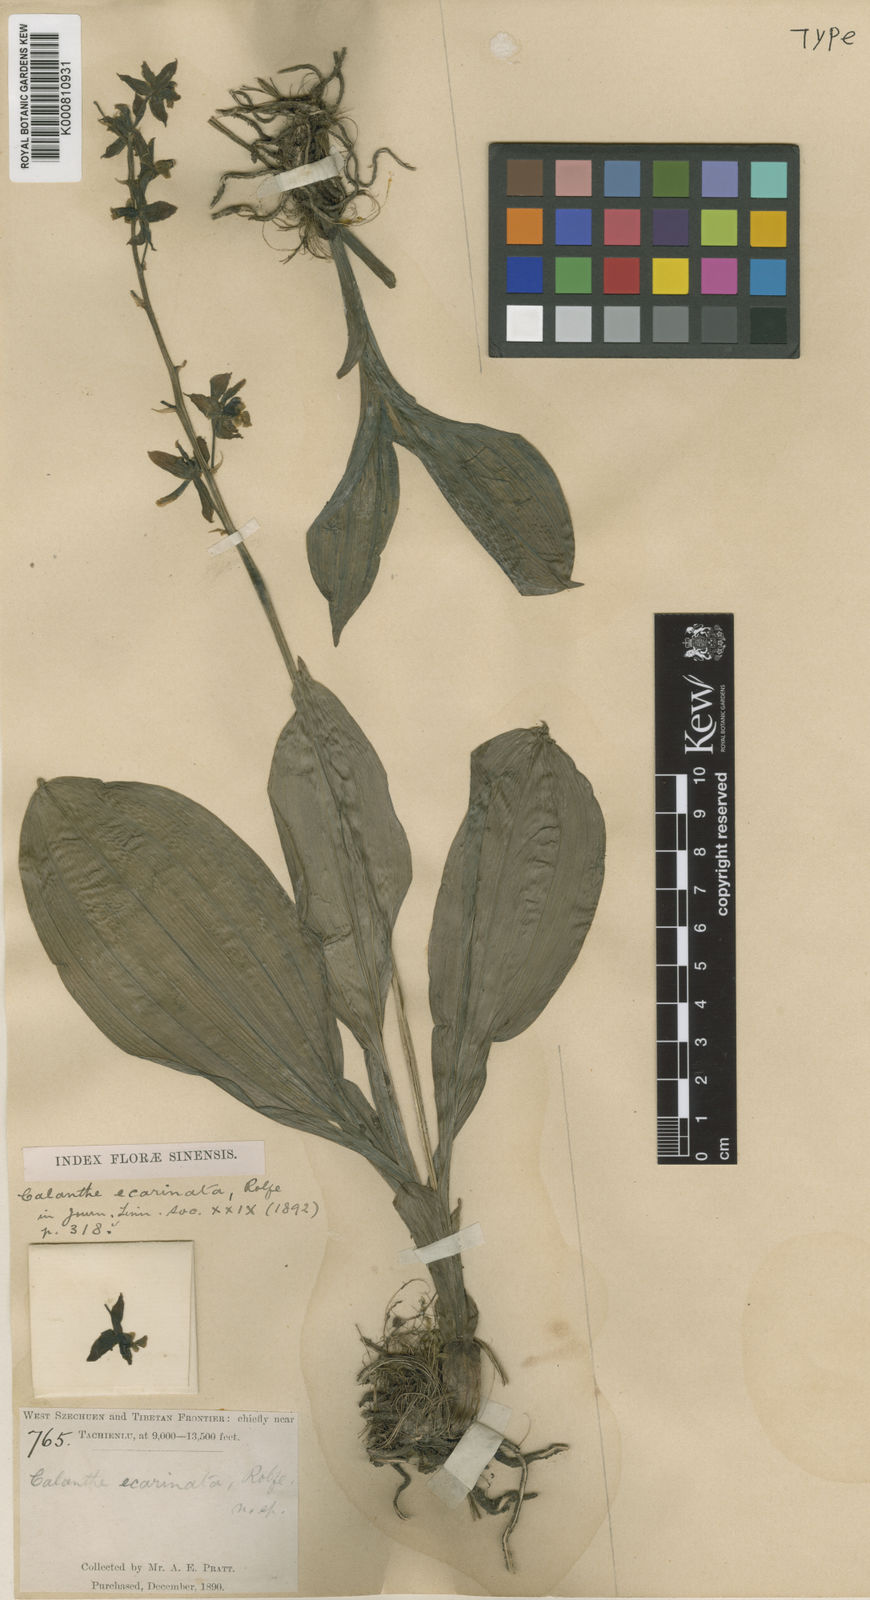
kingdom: Plantae
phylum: Tracheophyta
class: Liliopsida
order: Asparagales
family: Orchidaceae
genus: Calanthe
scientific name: Calanthe ecarinata
